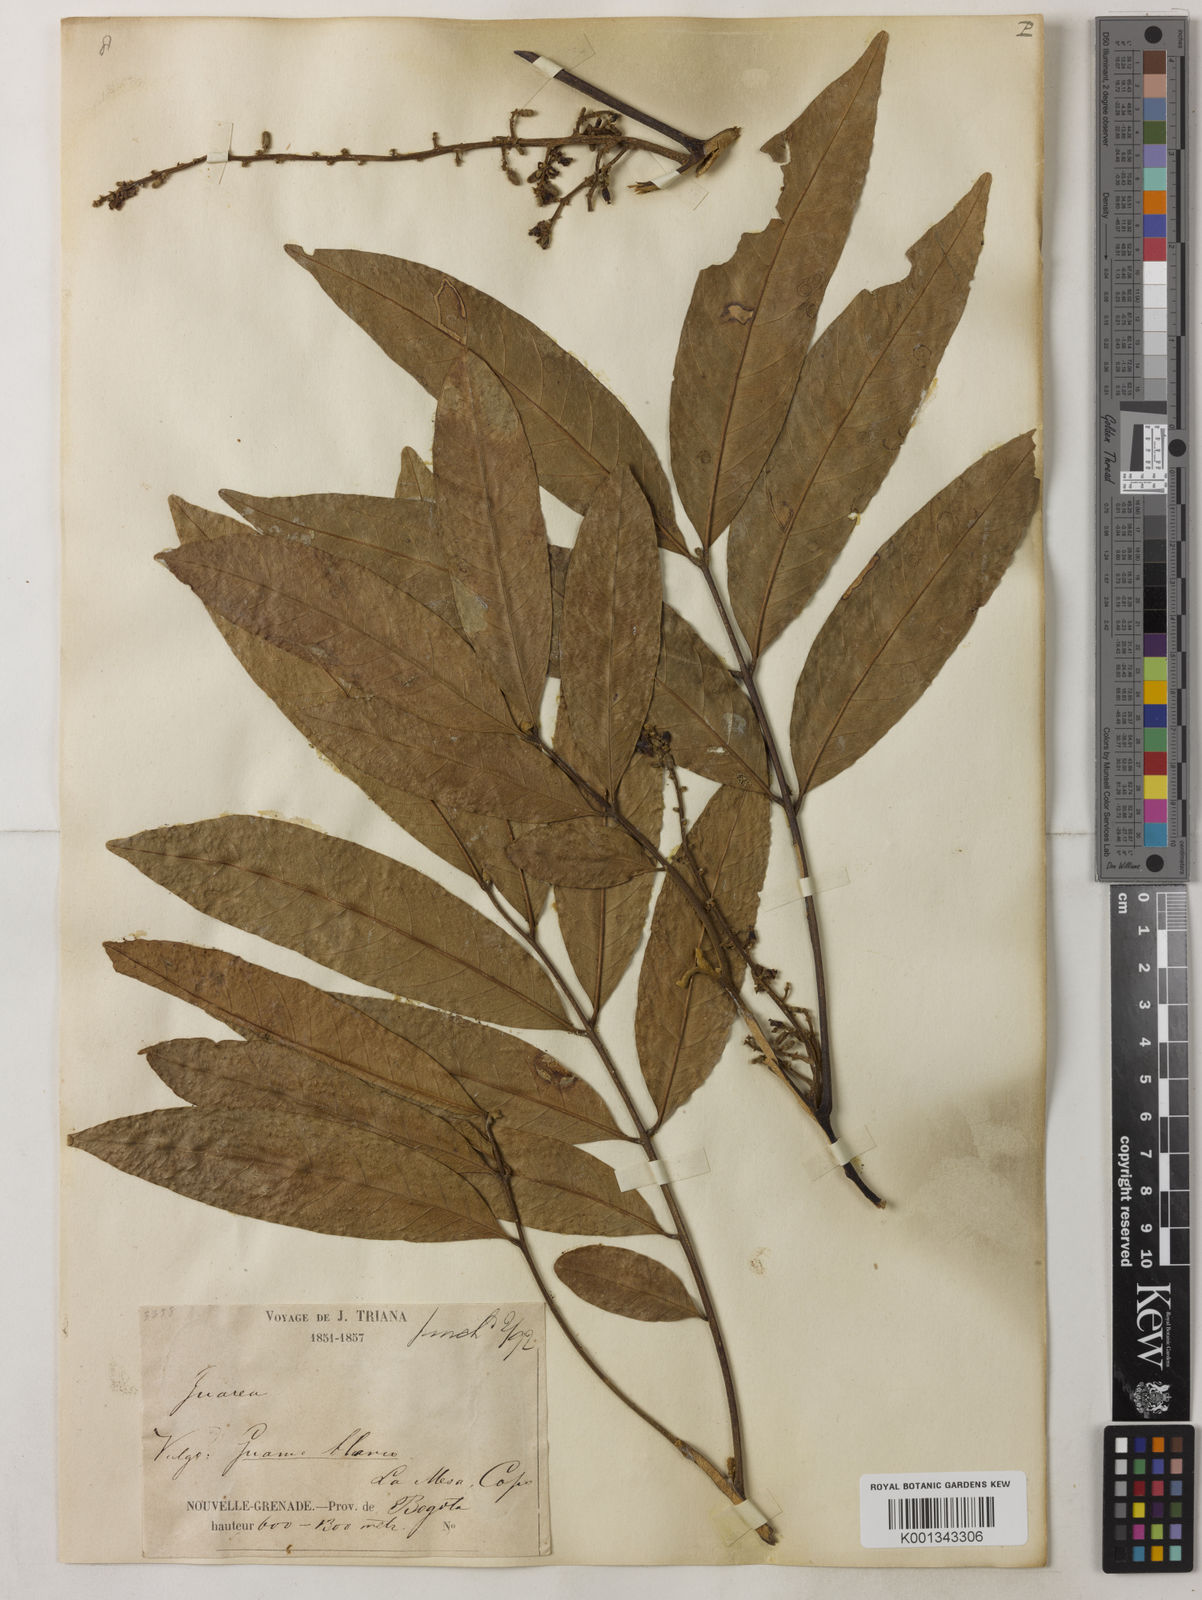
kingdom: Plantae
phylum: Tracheophyta
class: Magnoliopsida
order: Sapindales
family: Meliaceae
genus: Guarea
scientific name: Guarea guidonia
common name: American muskwood
